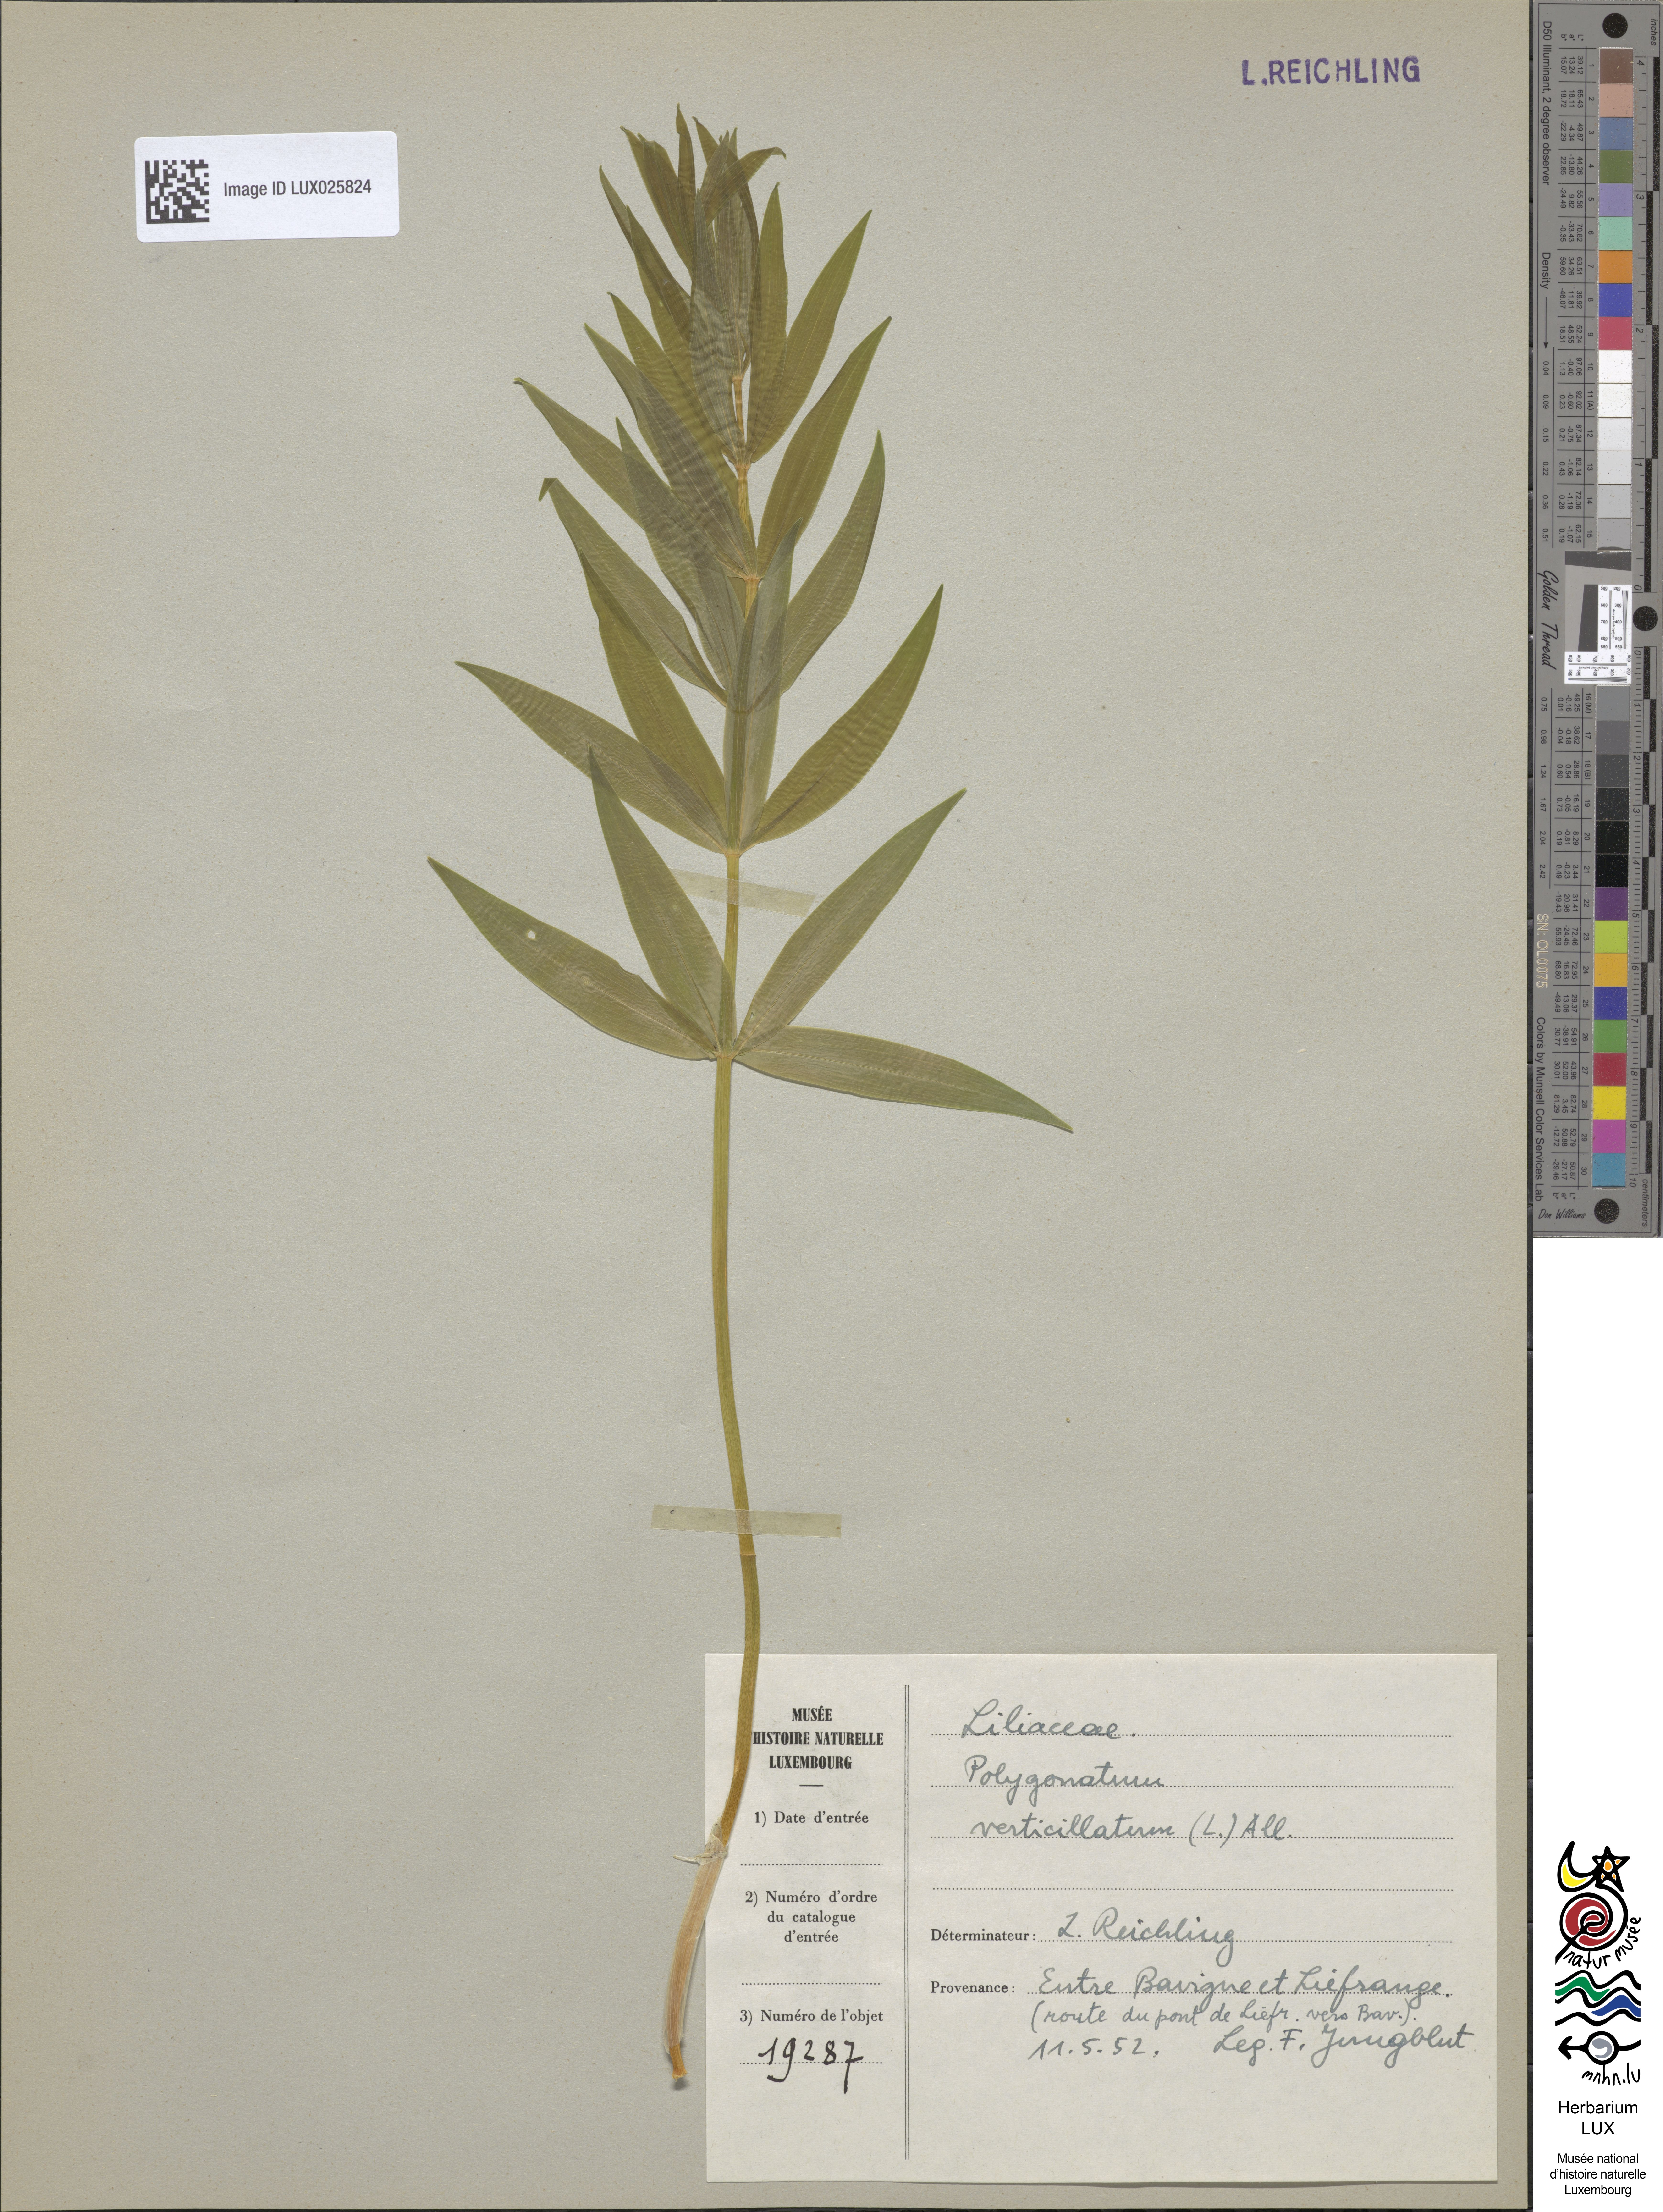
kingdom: Plantae
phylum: Tracheophyta
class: Liliopsida
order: Asparagales
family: Asparagaceae
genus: Polygonatum
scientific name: Polygonatum verticillatum
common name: Whorled solomon's-seal
